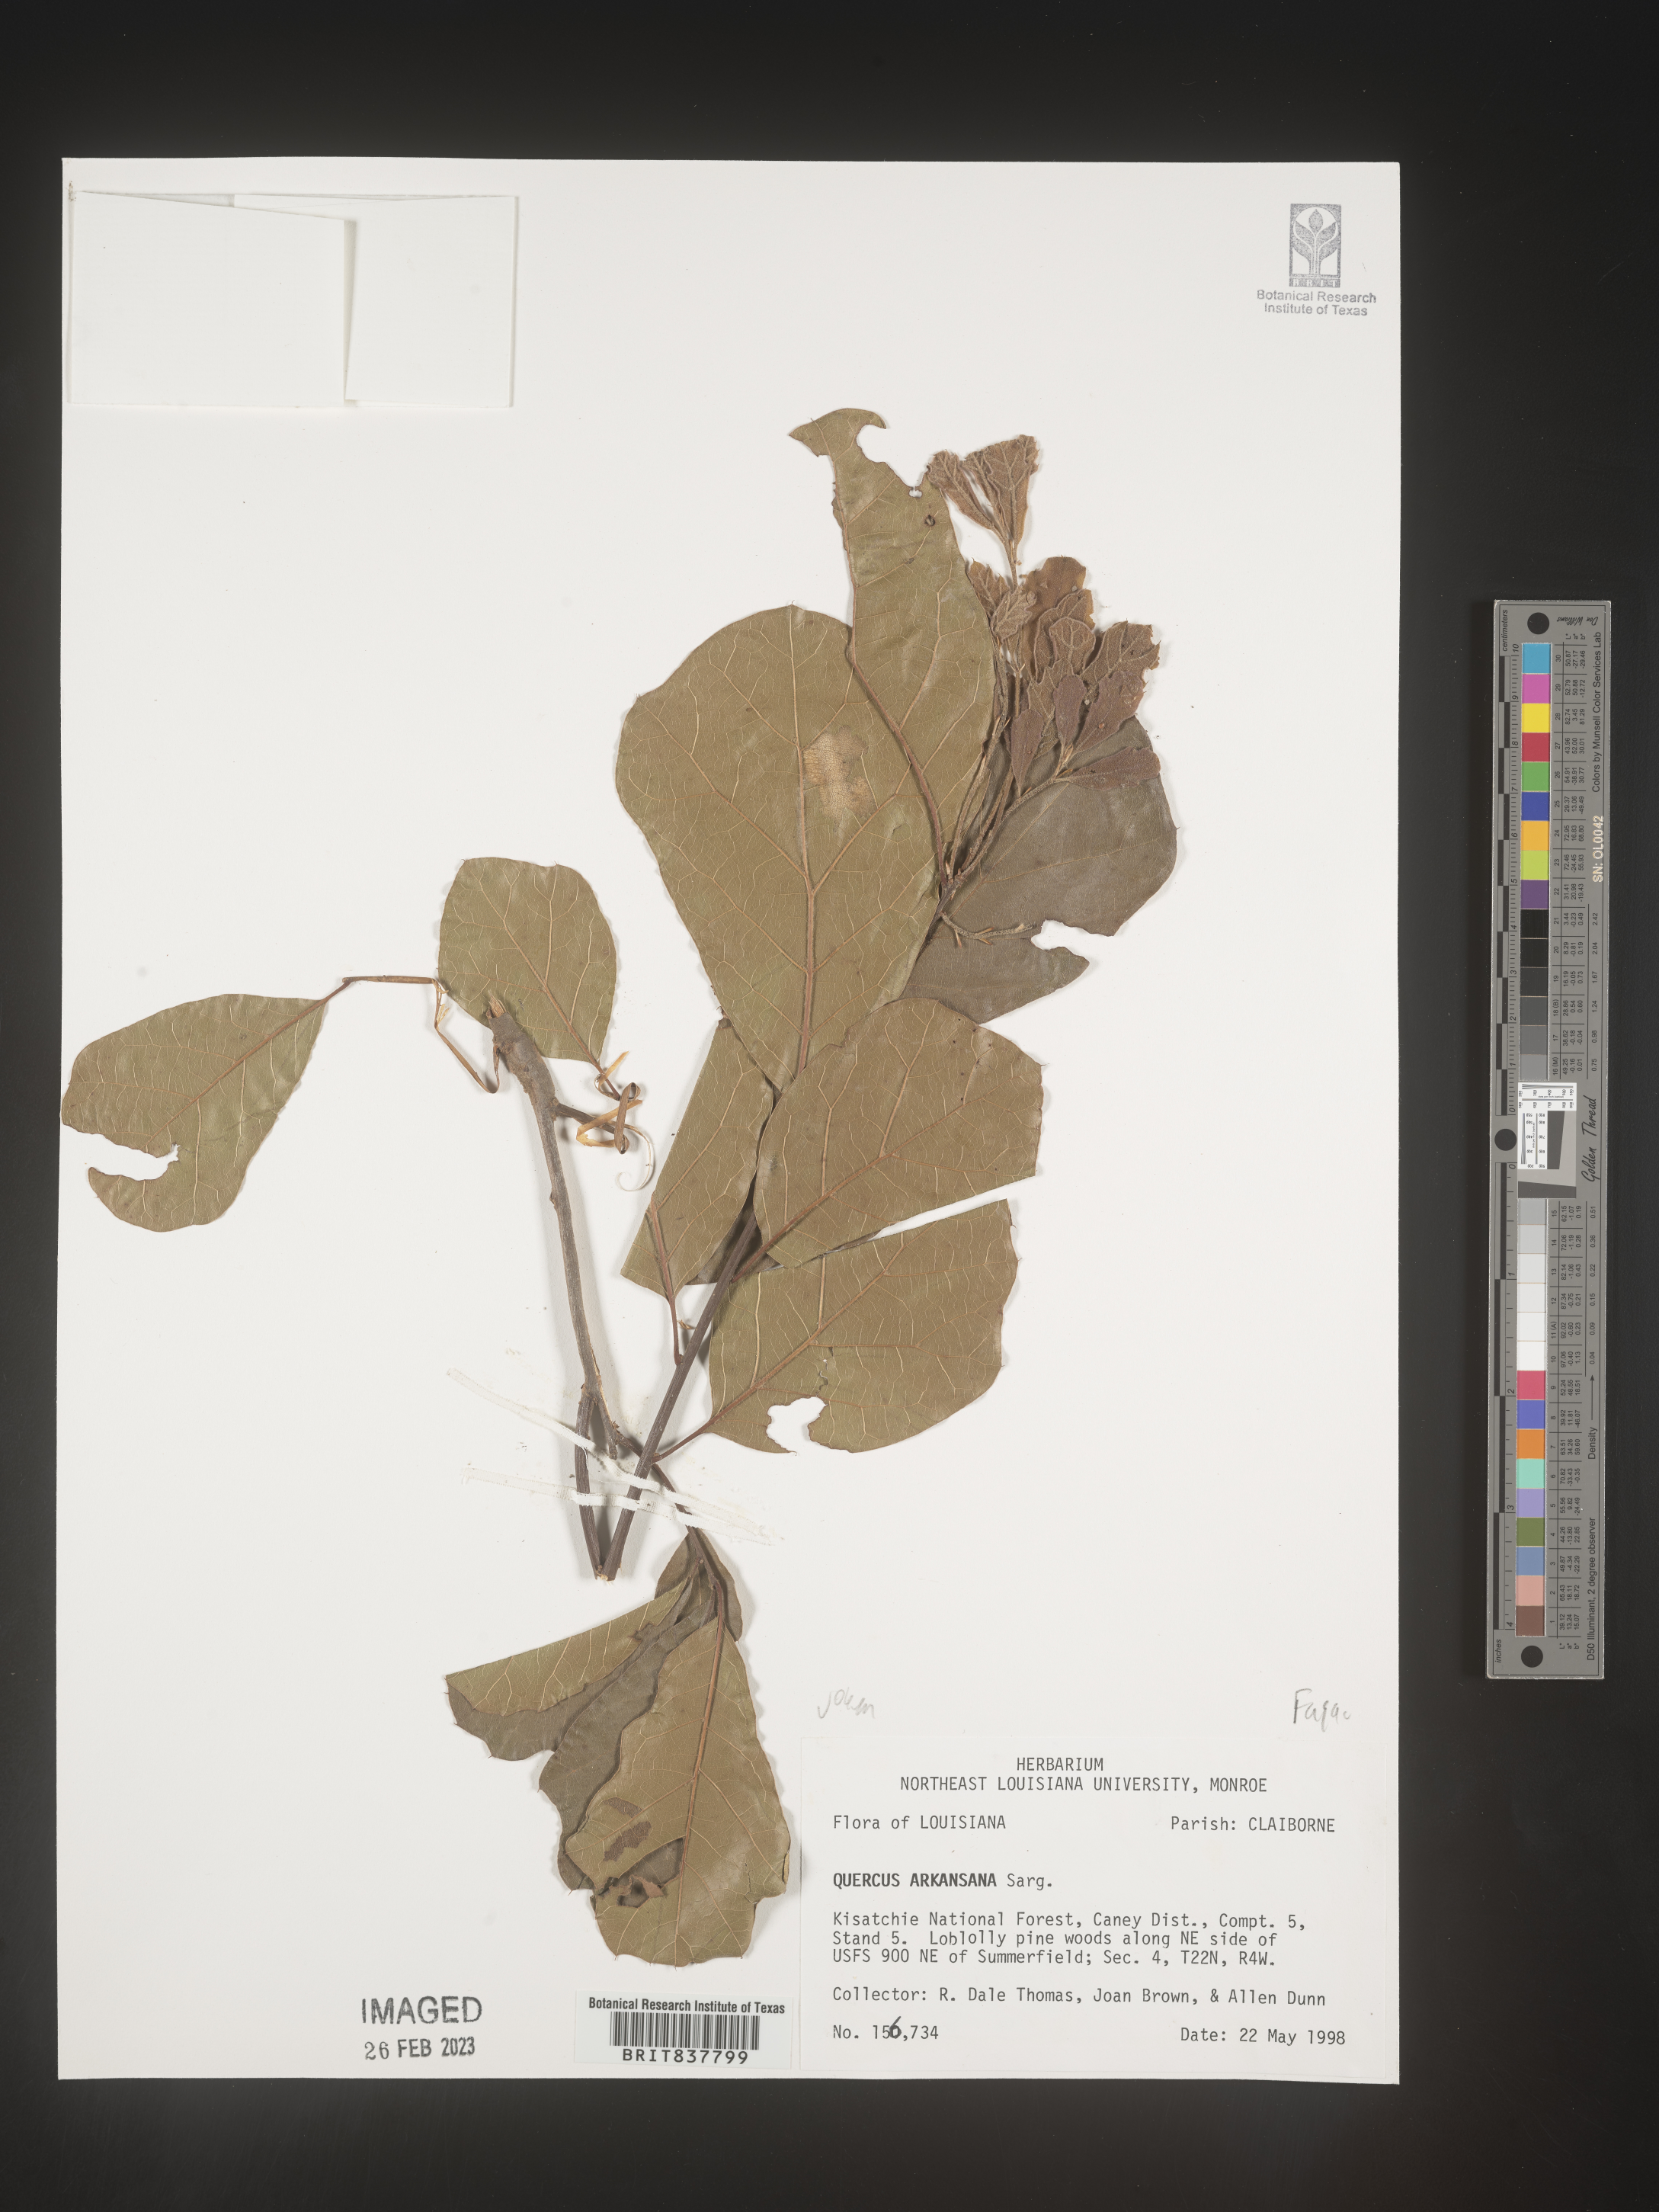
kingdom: Plantae
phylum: Tracheophyta
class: Magnoliopsida
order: Fagales
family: Fagaceae
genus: Quercus
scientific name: Quercus arkansana
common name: Arkansas oak
